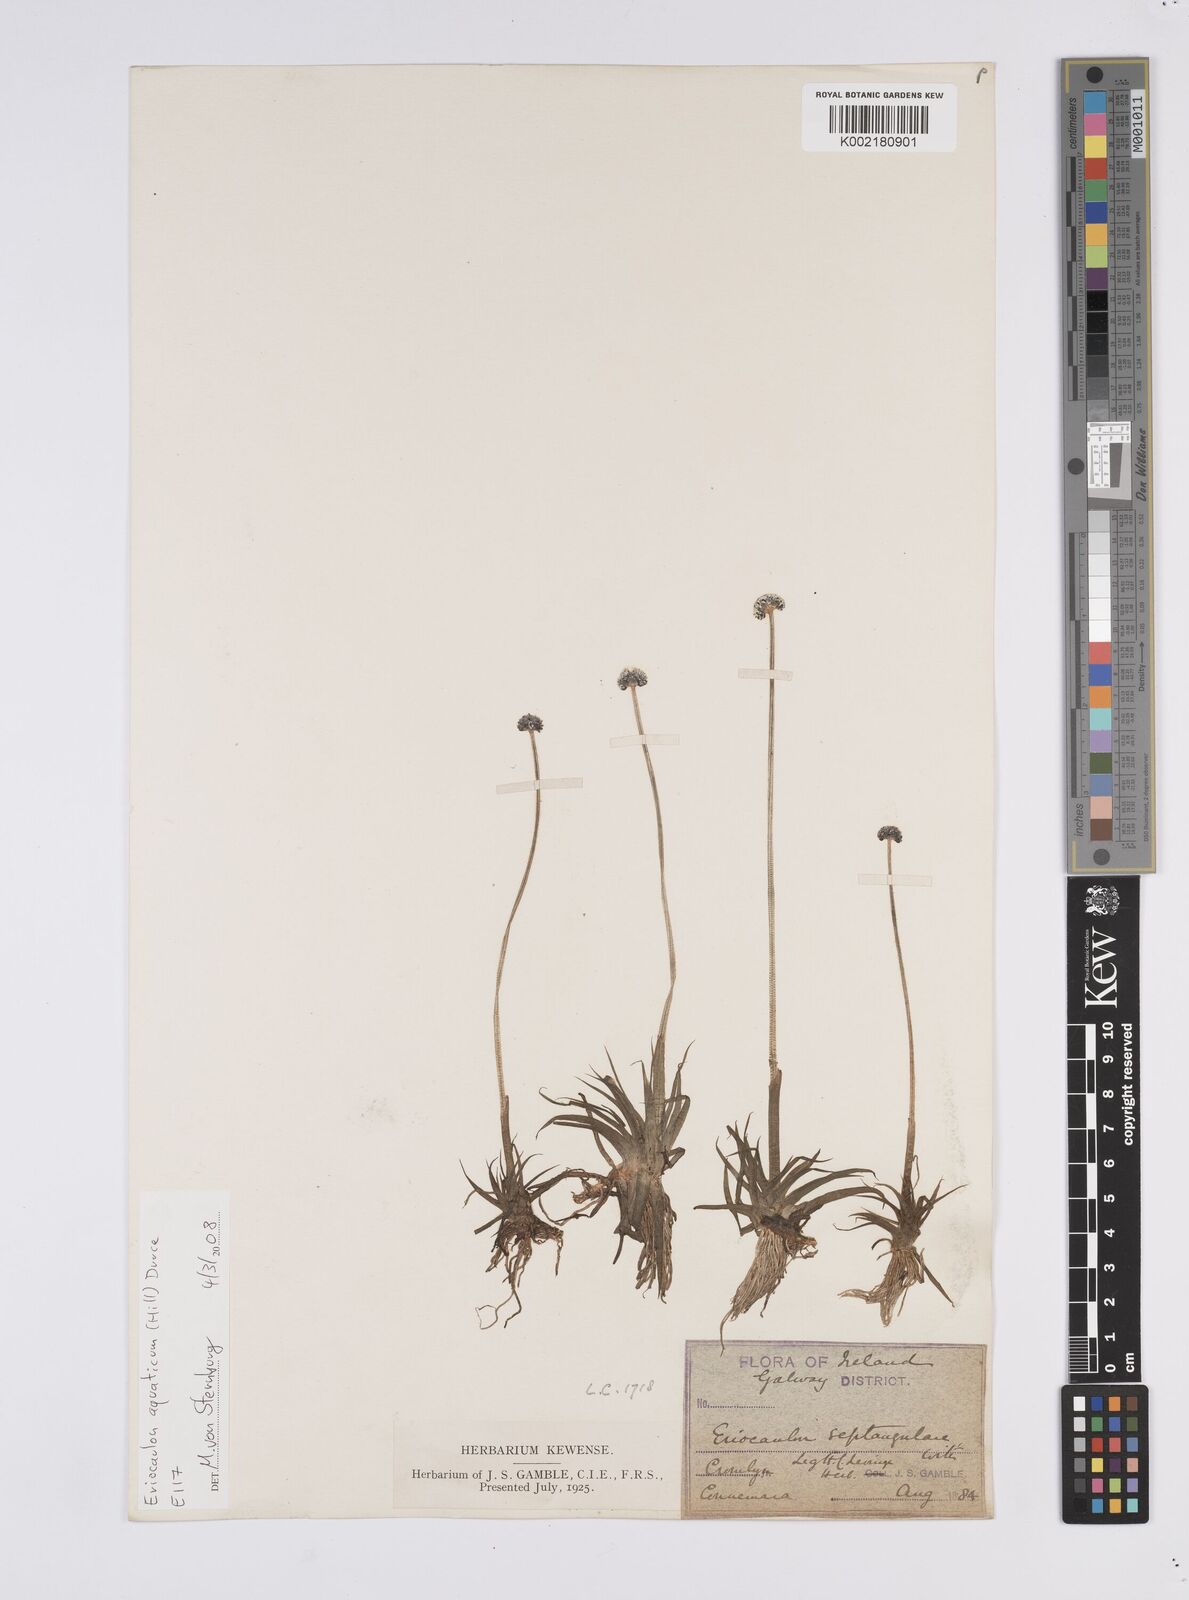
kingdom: Plantae
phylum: Tracheophyta
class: Liliopsida
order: Poales
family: Eriocaulaceae
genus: Eriocaulon
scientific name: Eriocaulon aquaticum
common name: Pipewort
